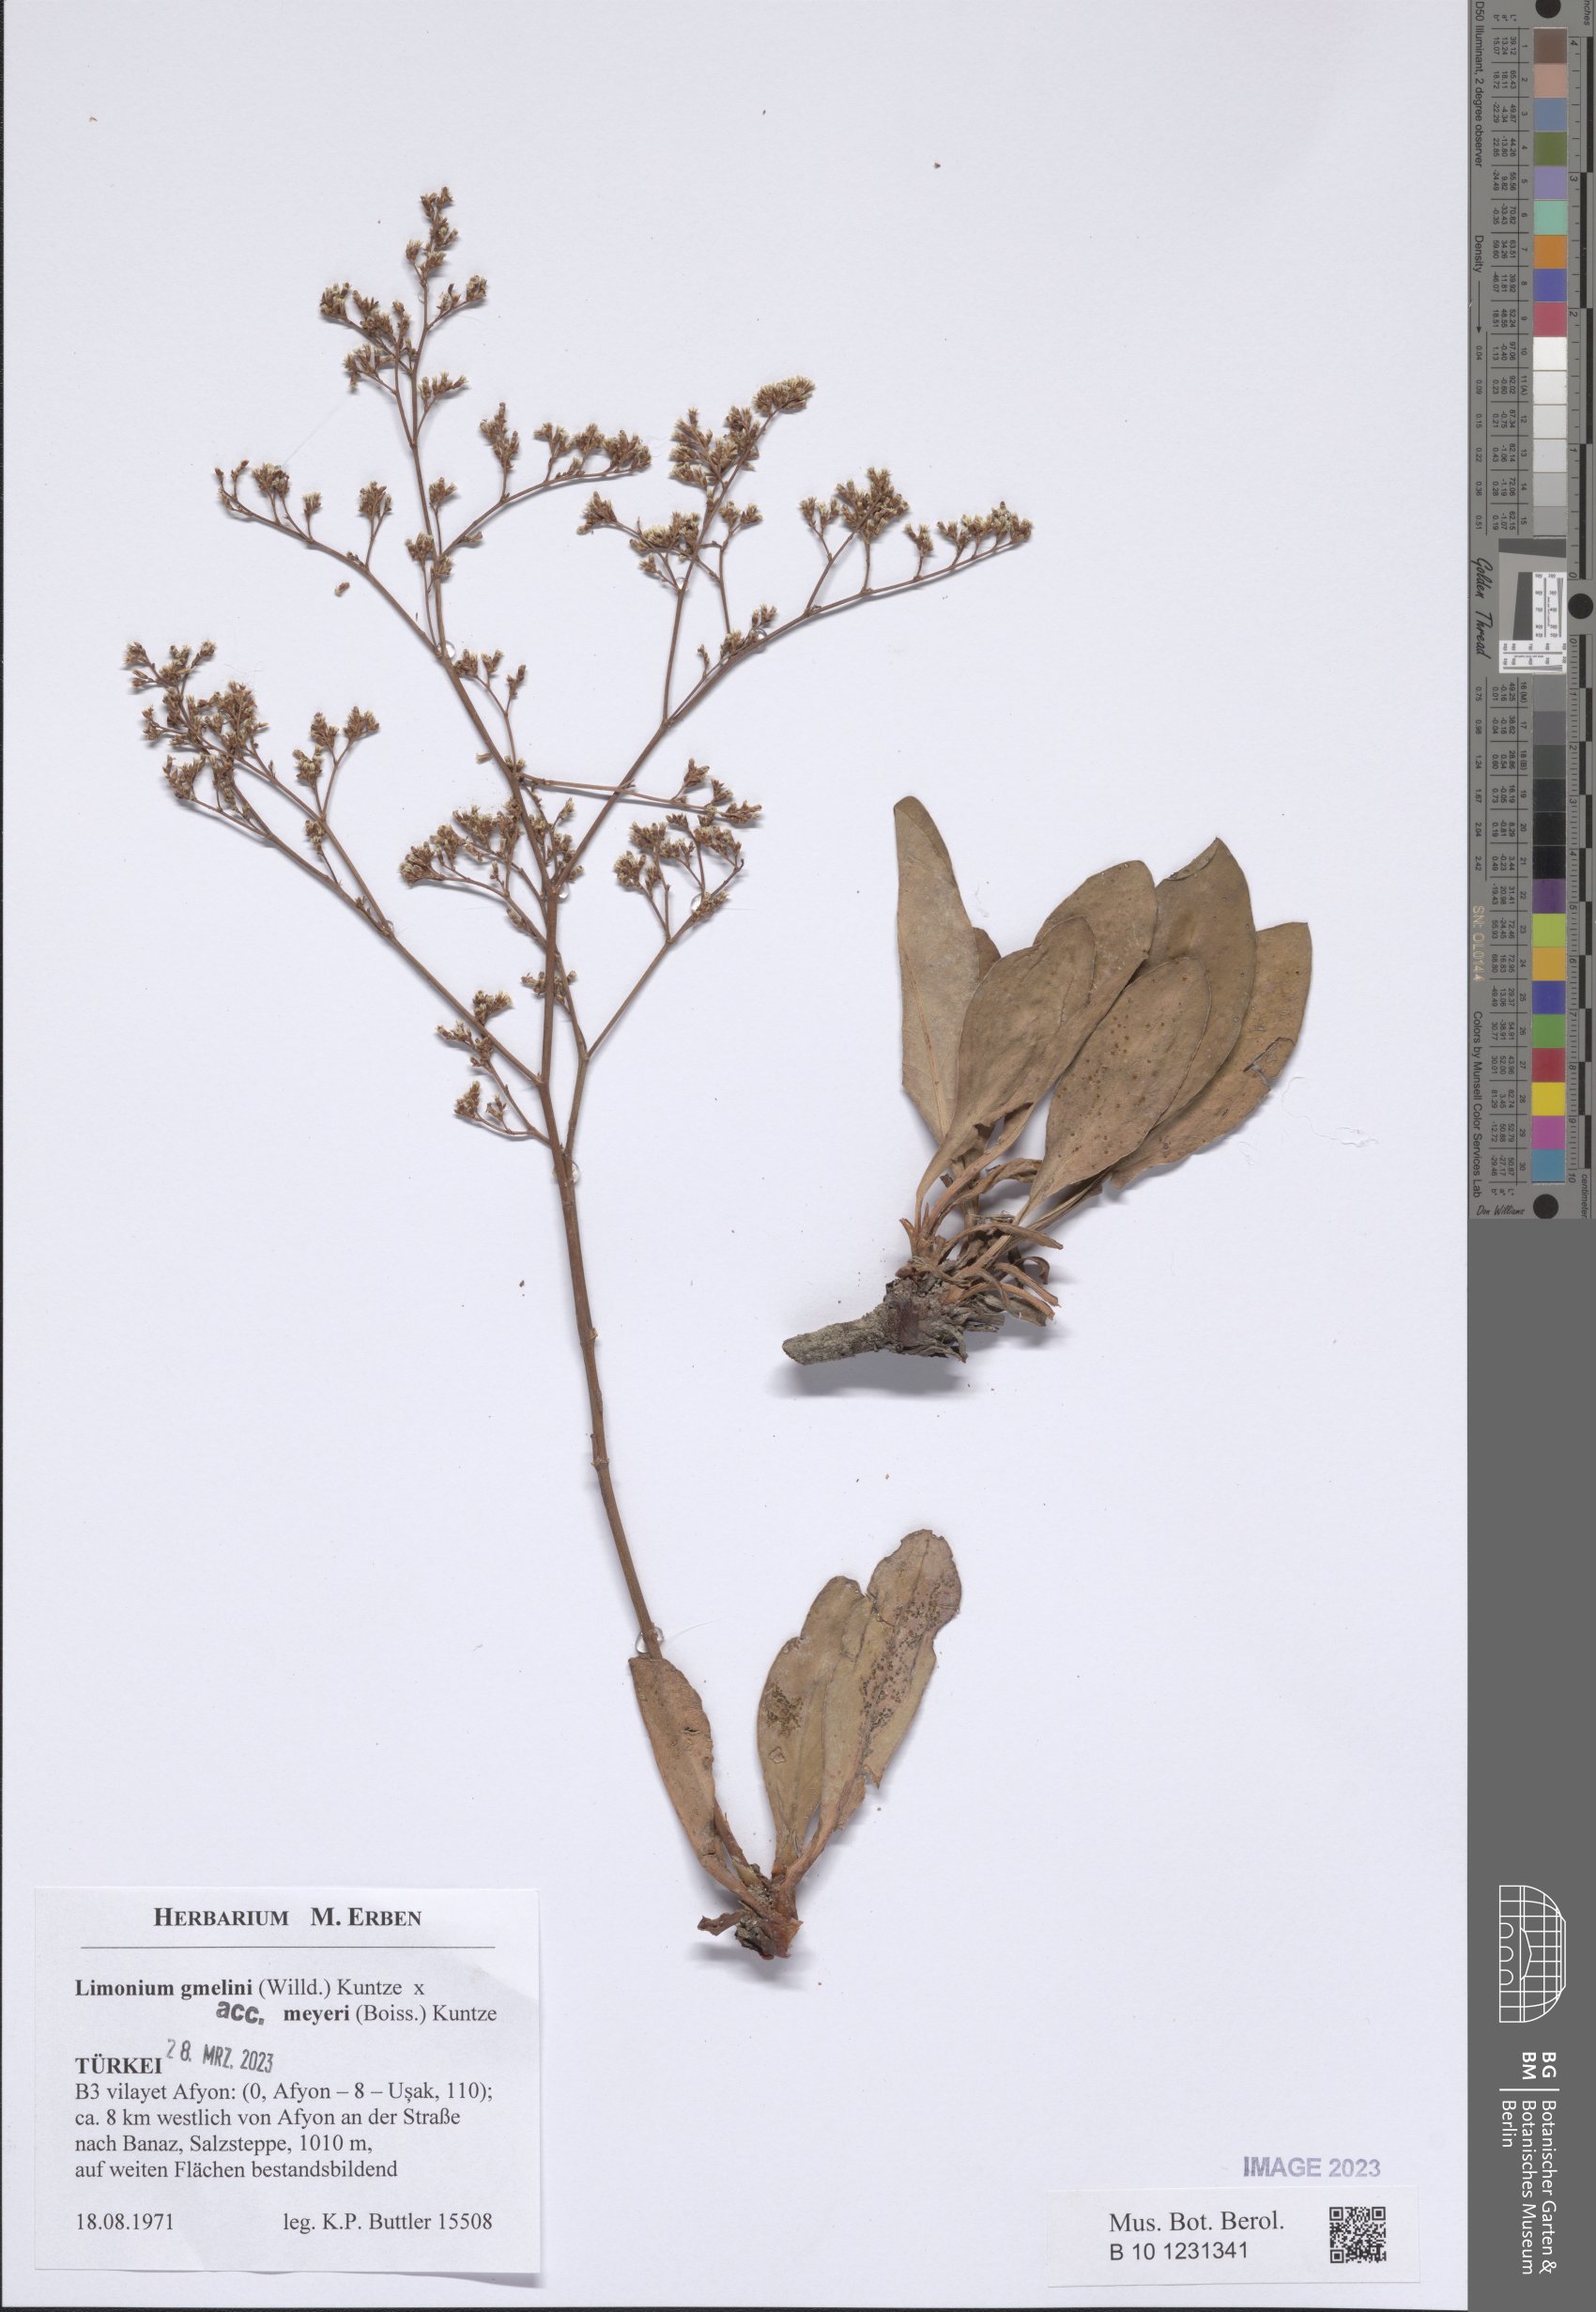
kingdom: Plantae
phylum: Tracheophyta
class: Magnoliopsida
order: Caryophyllales
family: Plumbaginaceae
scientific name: Plumbaginaceae
